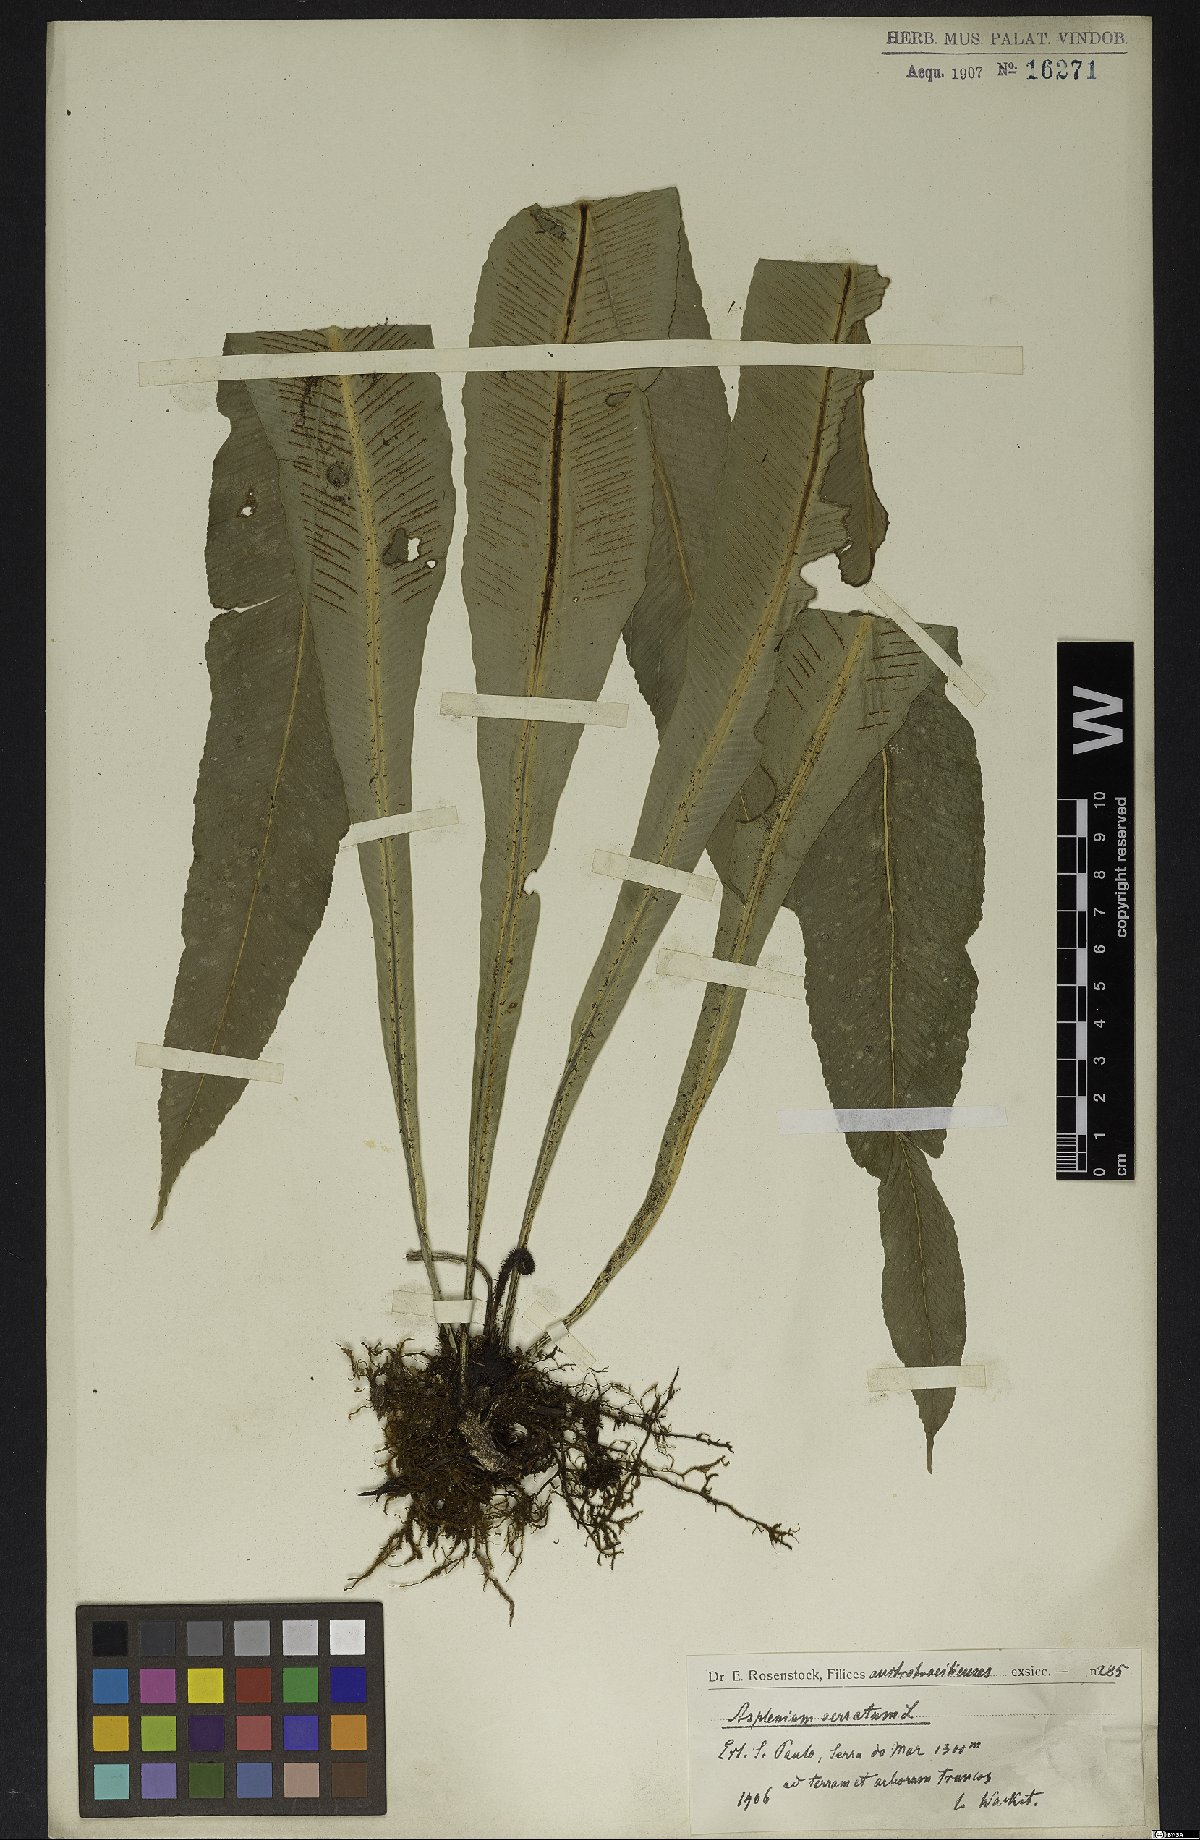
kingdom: Plantae
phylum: Tracheophyta
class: Polypodiopsida
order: Polypodiales
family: Aspleniaceae
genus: Asplenium
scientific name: Asplenium serratum
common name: Wild birdnest fern
